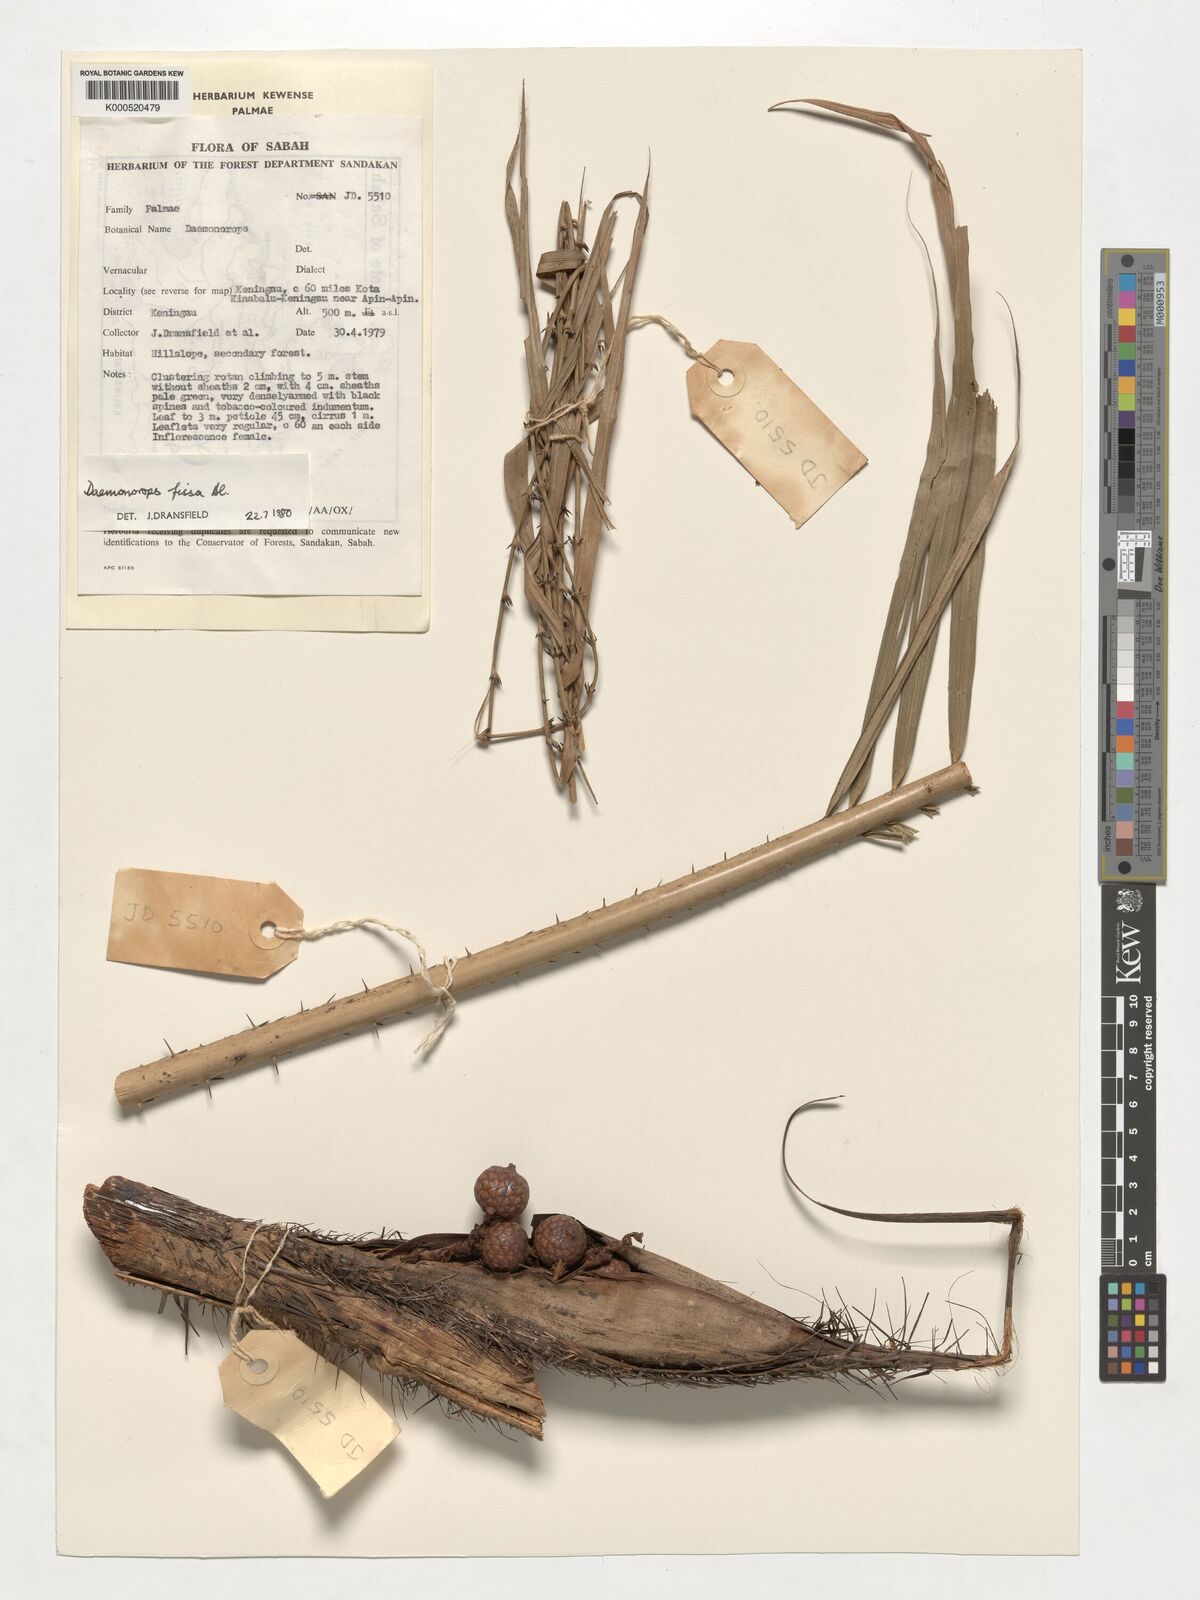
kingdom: Plantae
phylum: Tracheophyta
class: Liliopsida
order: Arecales
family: Arecaceae
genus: Calamus
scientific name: Calamus melanochaetes
